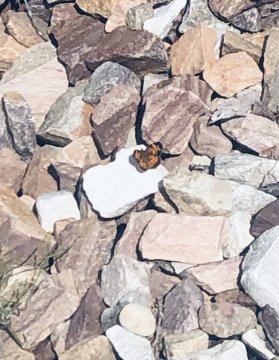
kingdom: Animalia
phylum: Arthropoda
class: Insecta
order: Lepidoptera
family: Nymphalidae
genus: Phyciodes
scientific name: Phyciodes
